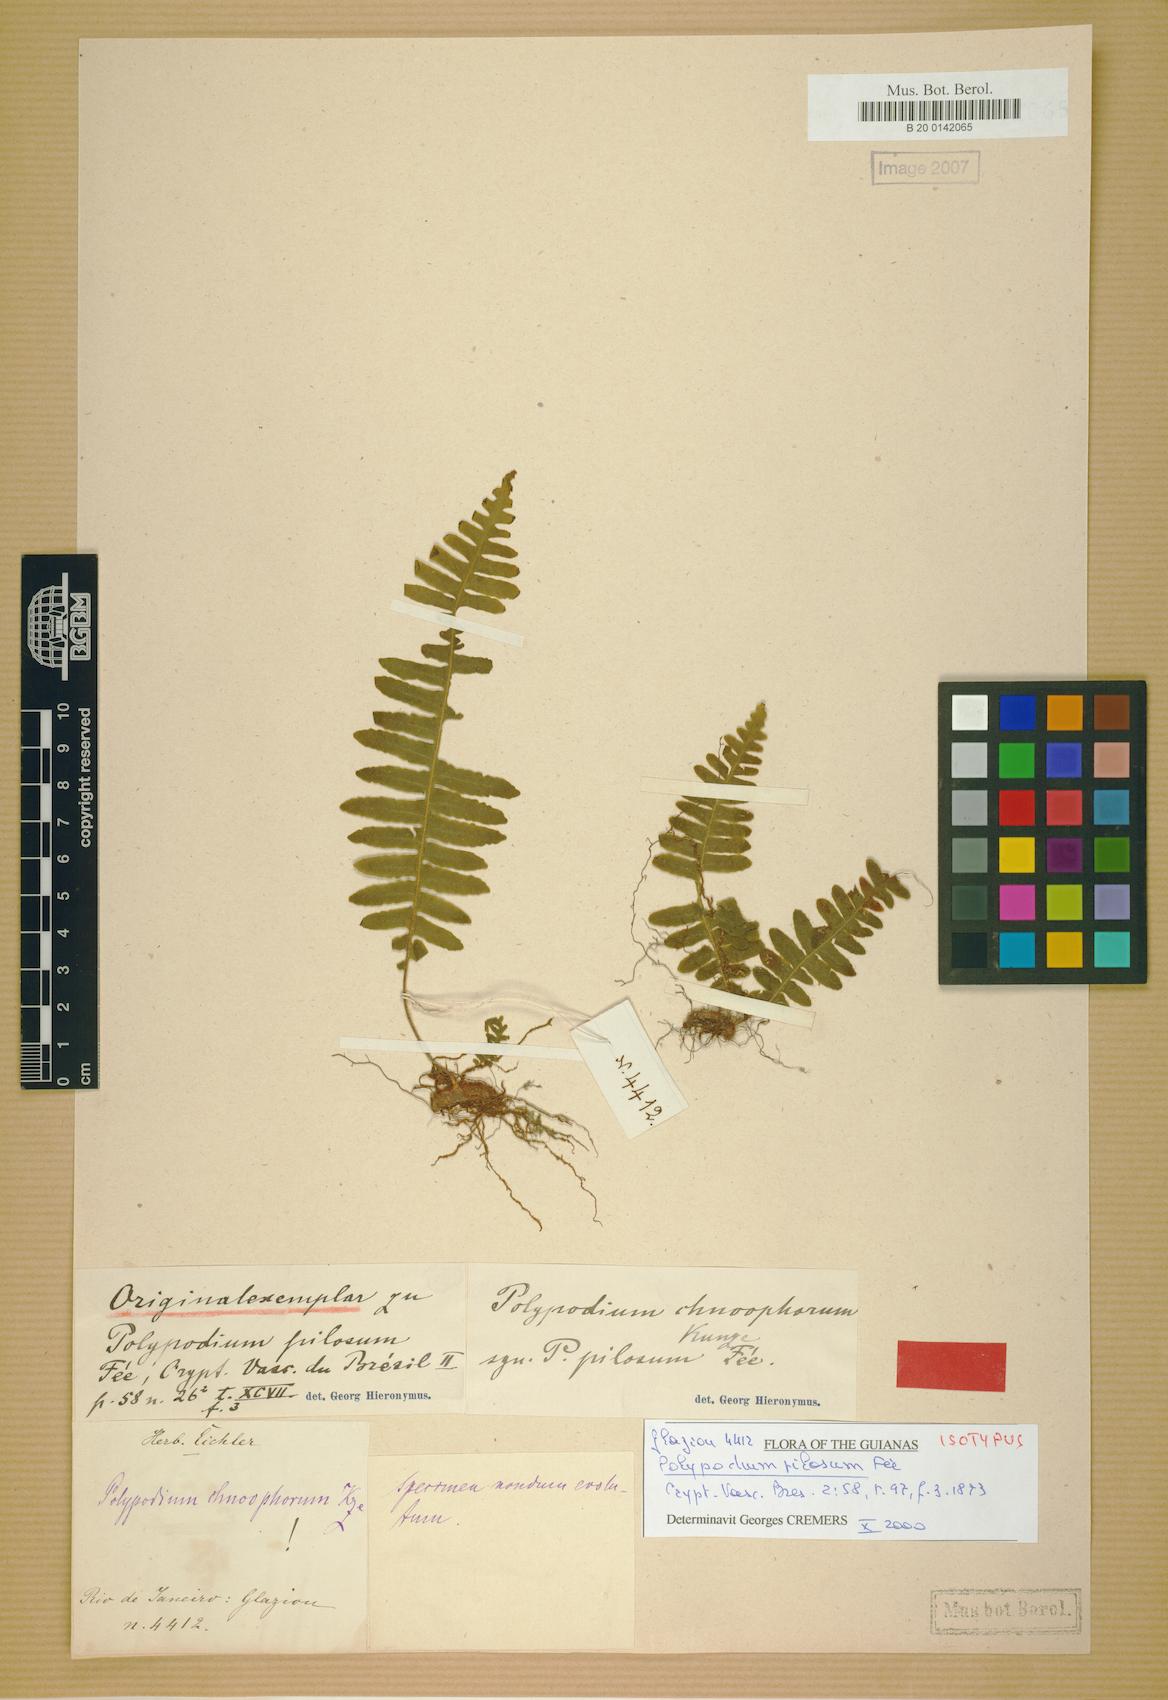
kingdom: Plantae
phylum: Tracheophyta
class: Polypodiopsida
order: Polypodiales
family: Polypodiaceae
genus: Pecluma
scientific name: Pecluma chnoophora
